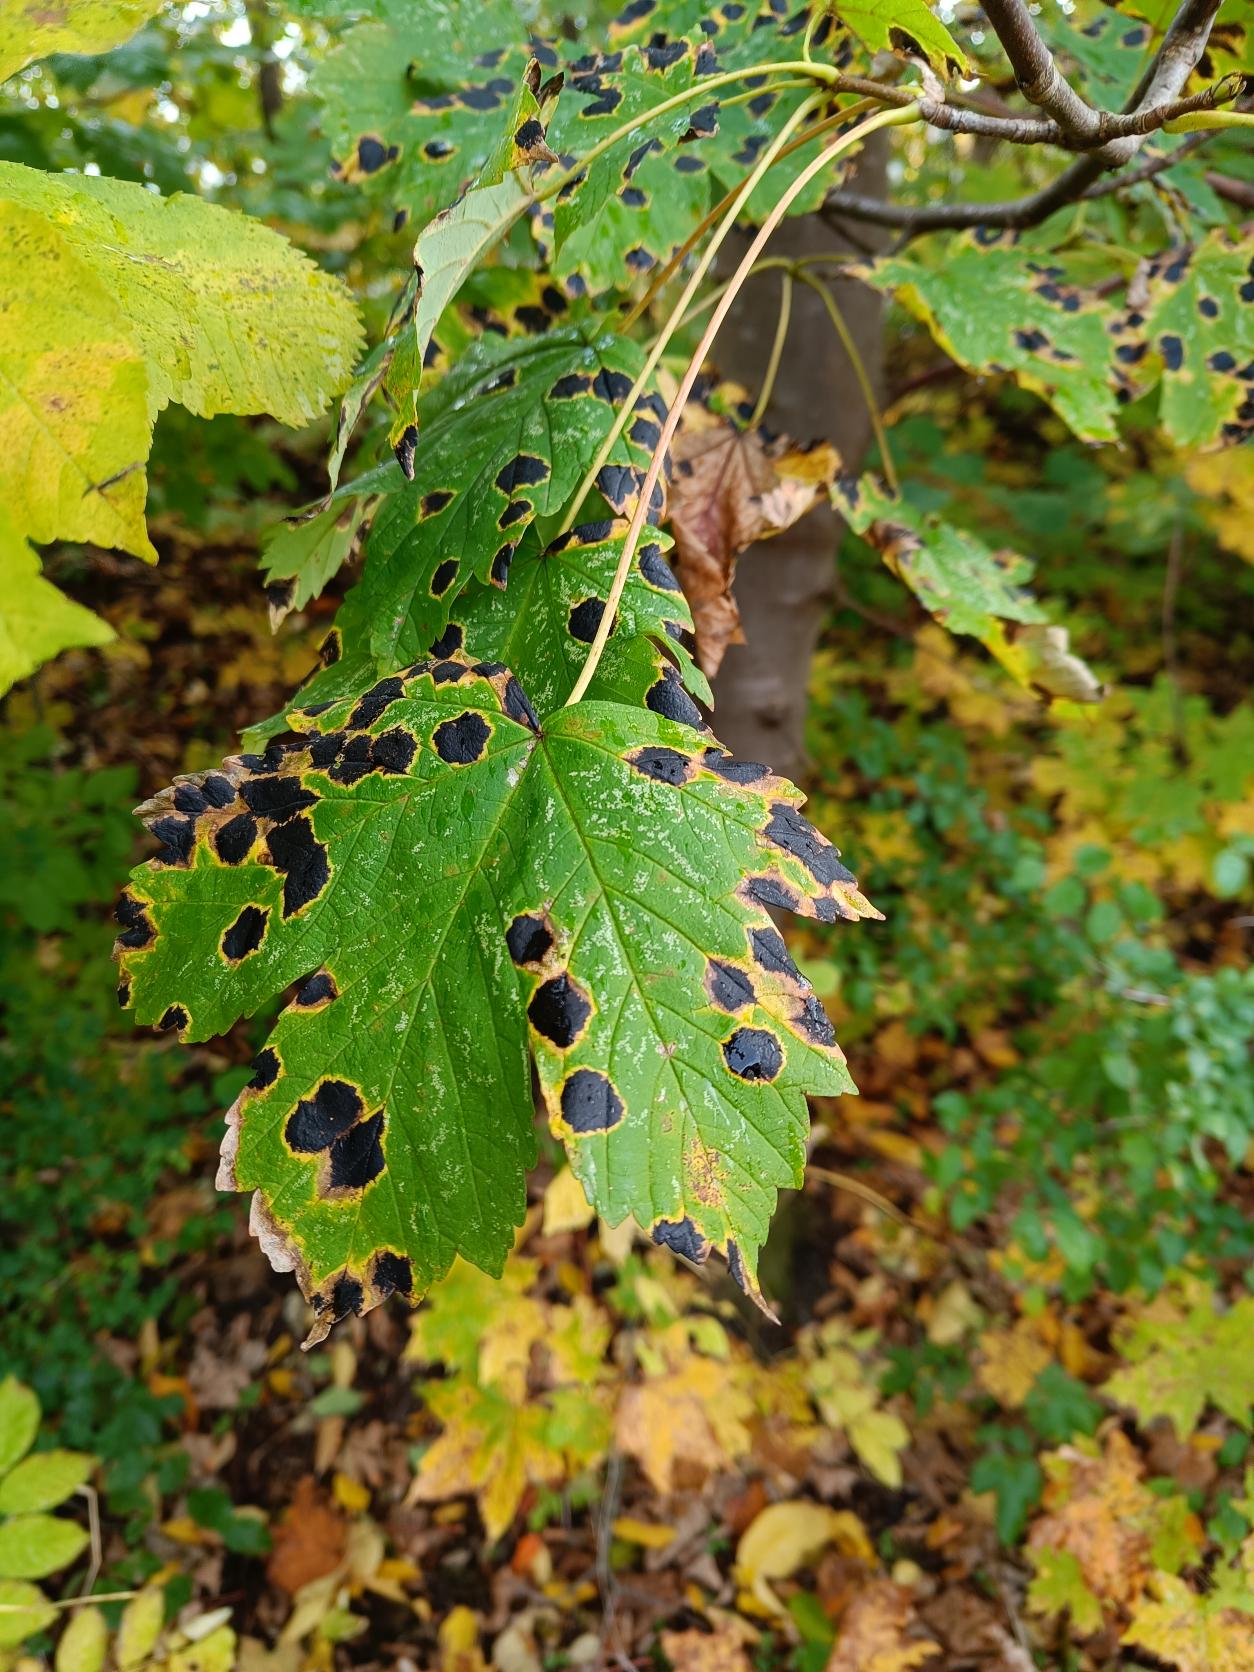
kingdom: Fungi
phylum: Ascomycota
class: Leotiomycetes
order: Rhytismatales
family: Rhytismataceae
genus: Rhytisma
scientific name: Rhytisma acerinum
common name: Ahorn-rynkeplet
